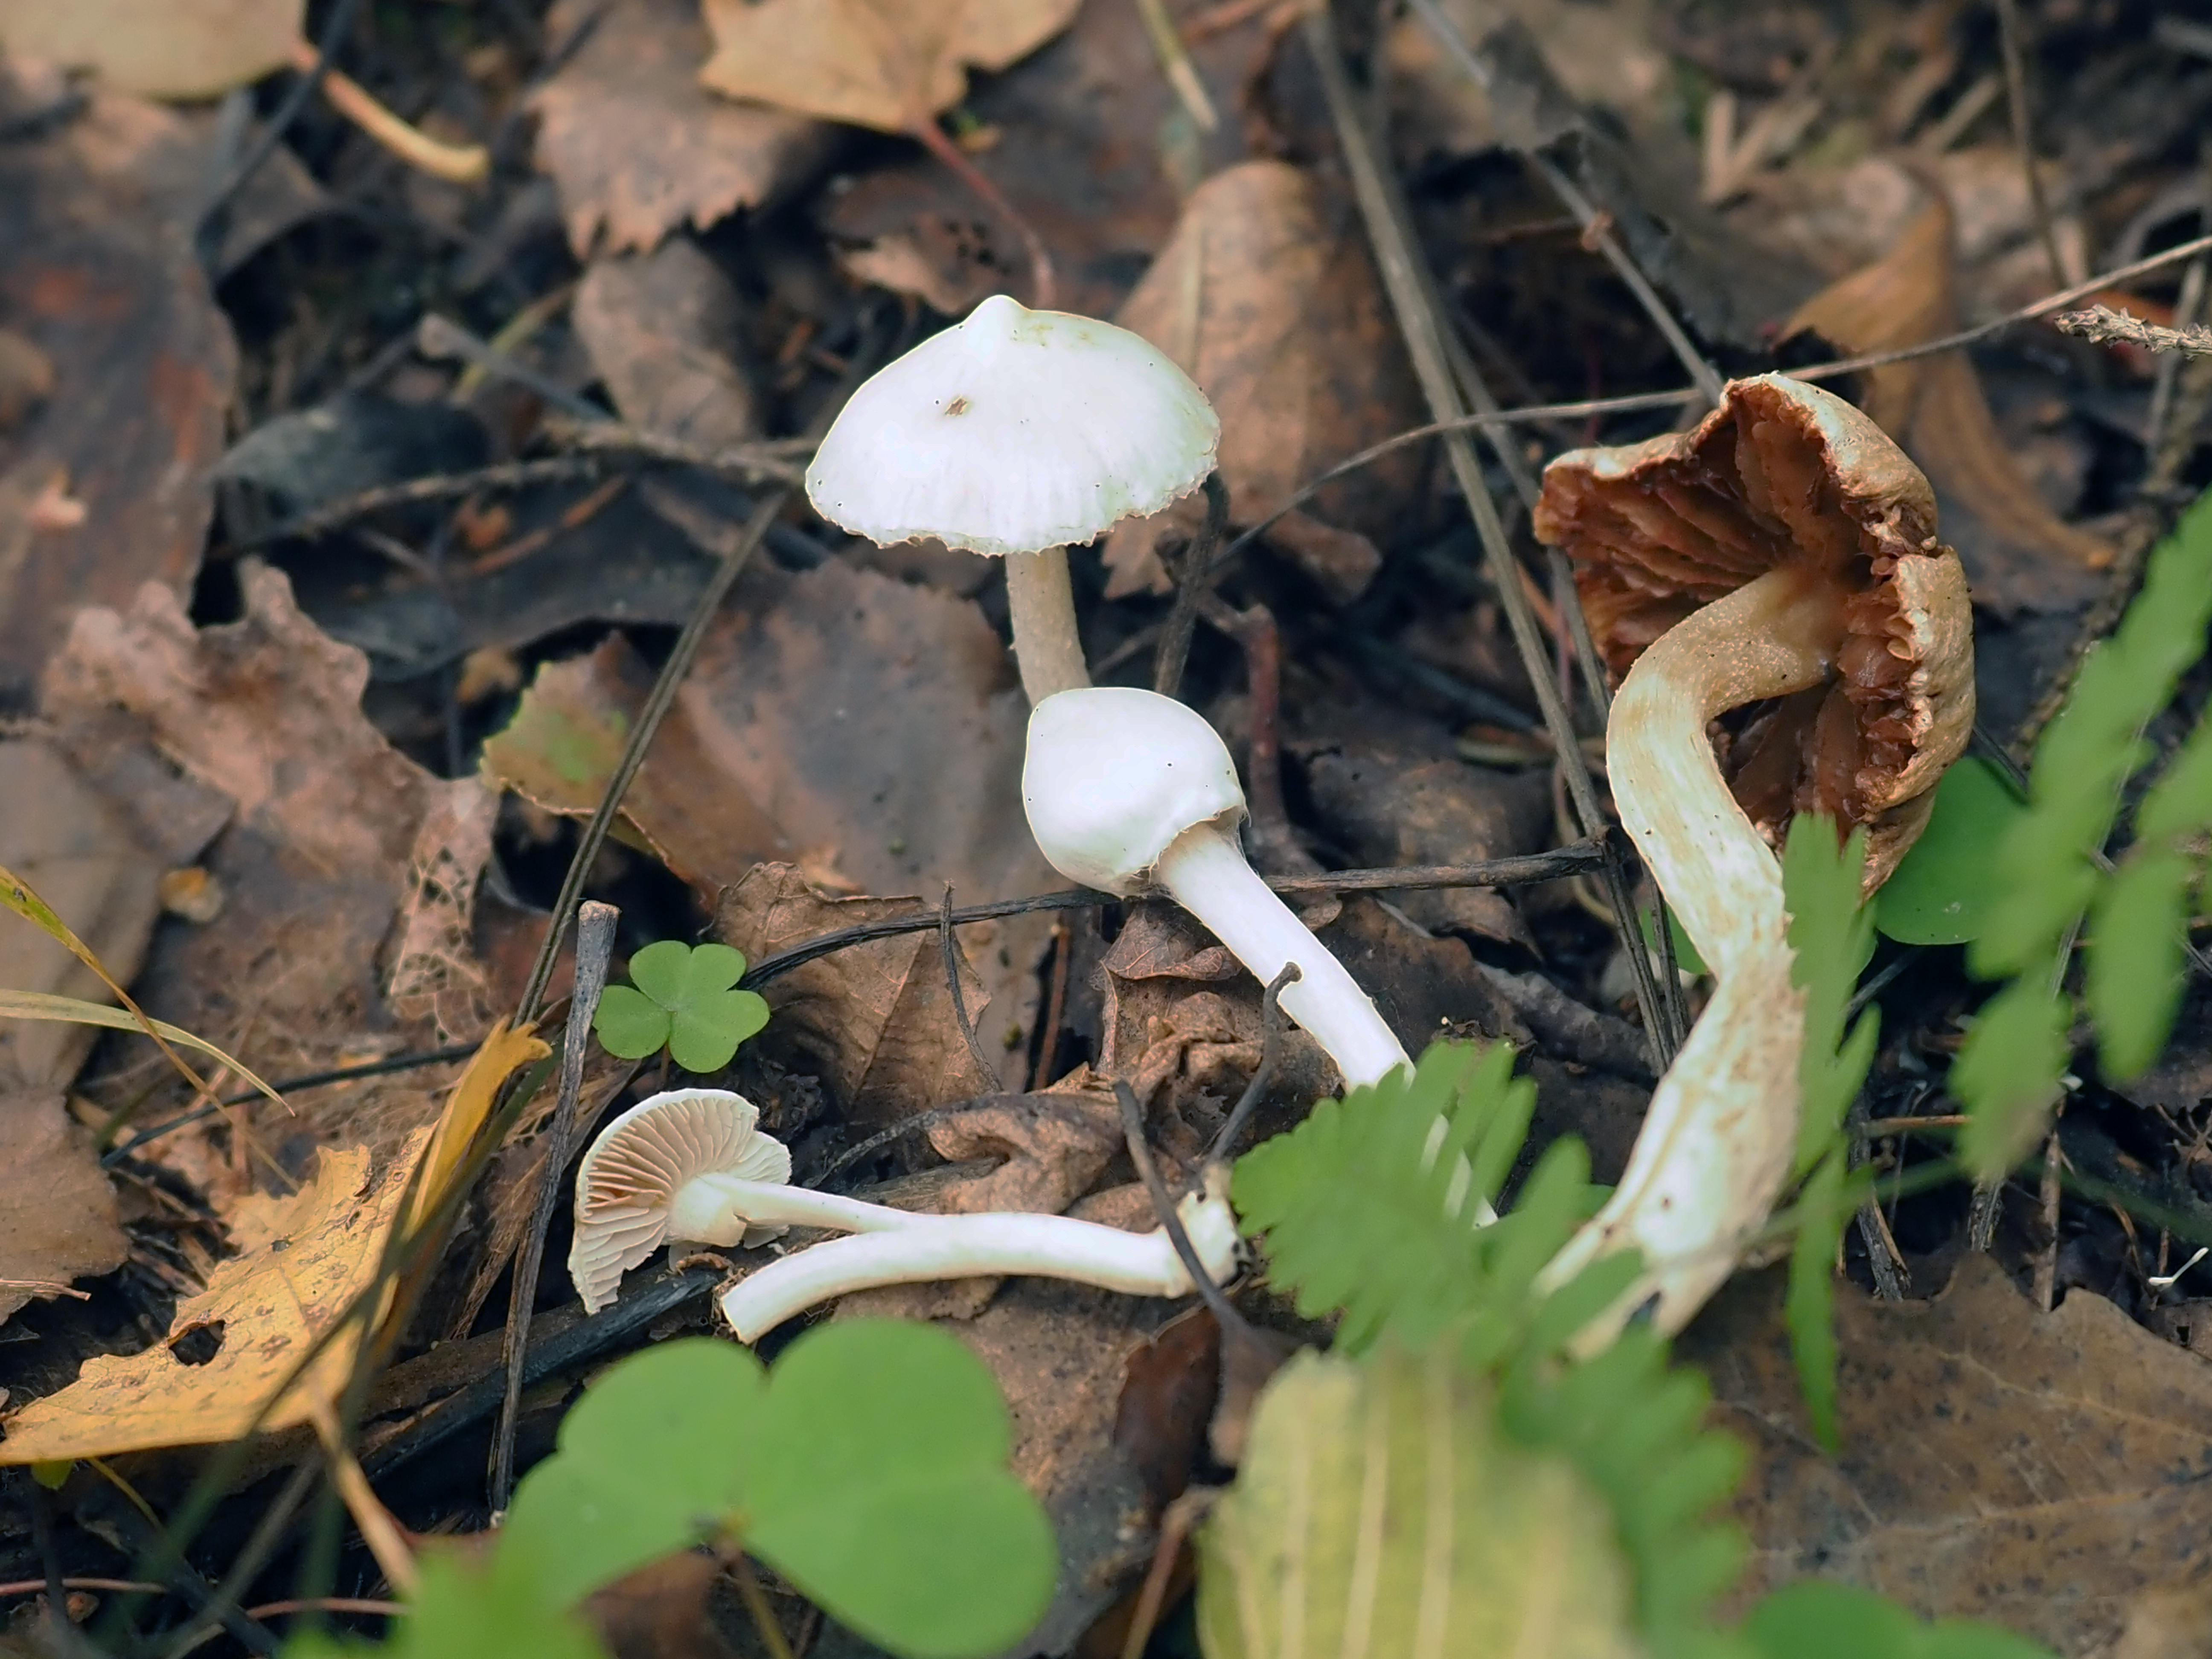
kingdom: Fungi
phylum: Basidiomycota
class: Agaricomycetes
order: Agaricales
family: Inocybaceae
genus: Inocybe
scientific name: Inocybe geophylla
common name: White fibrecap
